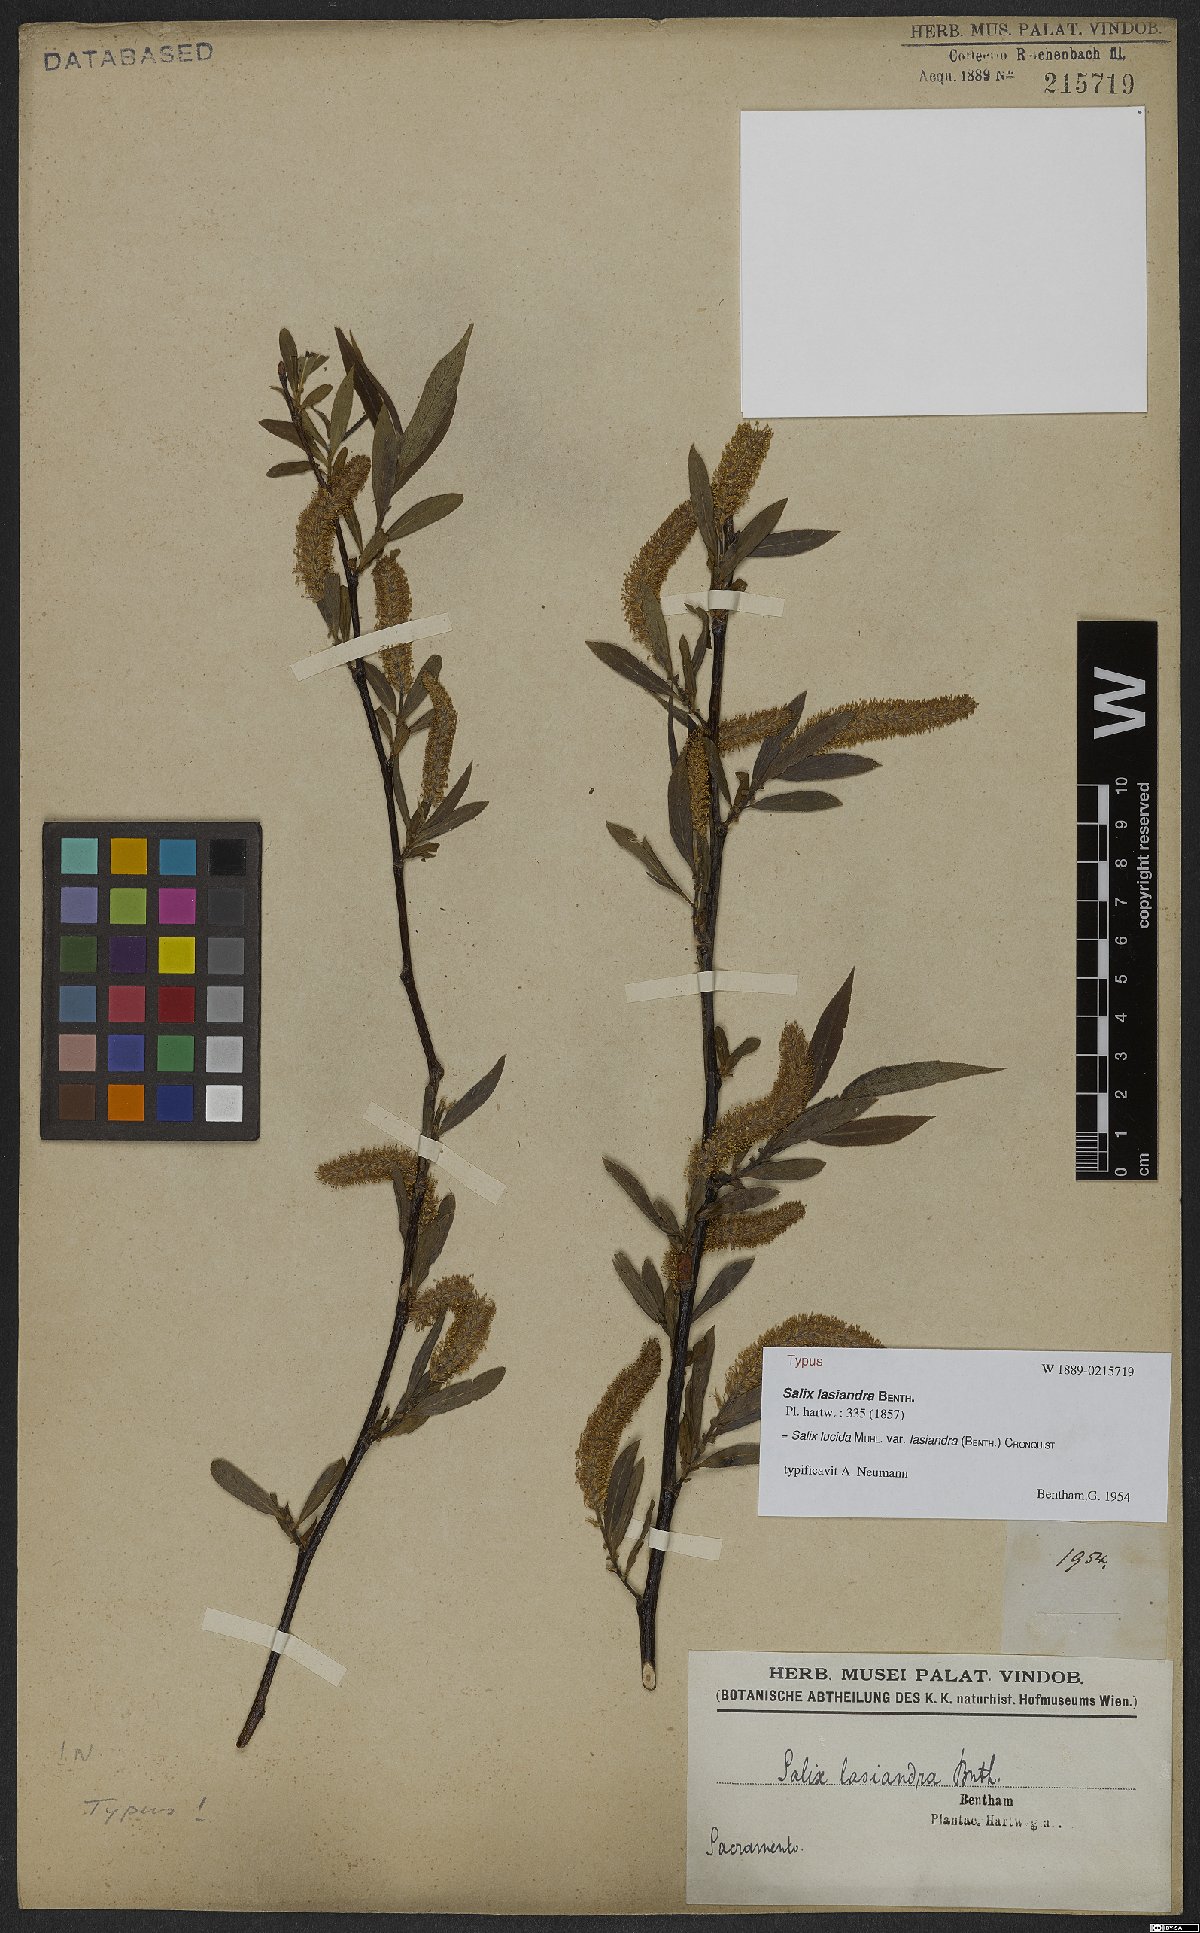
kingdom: Plantae
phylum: Tracheophyta
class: Magnoliopsida
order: Malpighiales
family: Salicaceae
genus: Salix
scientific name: Salix lucida
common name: Shining willow
